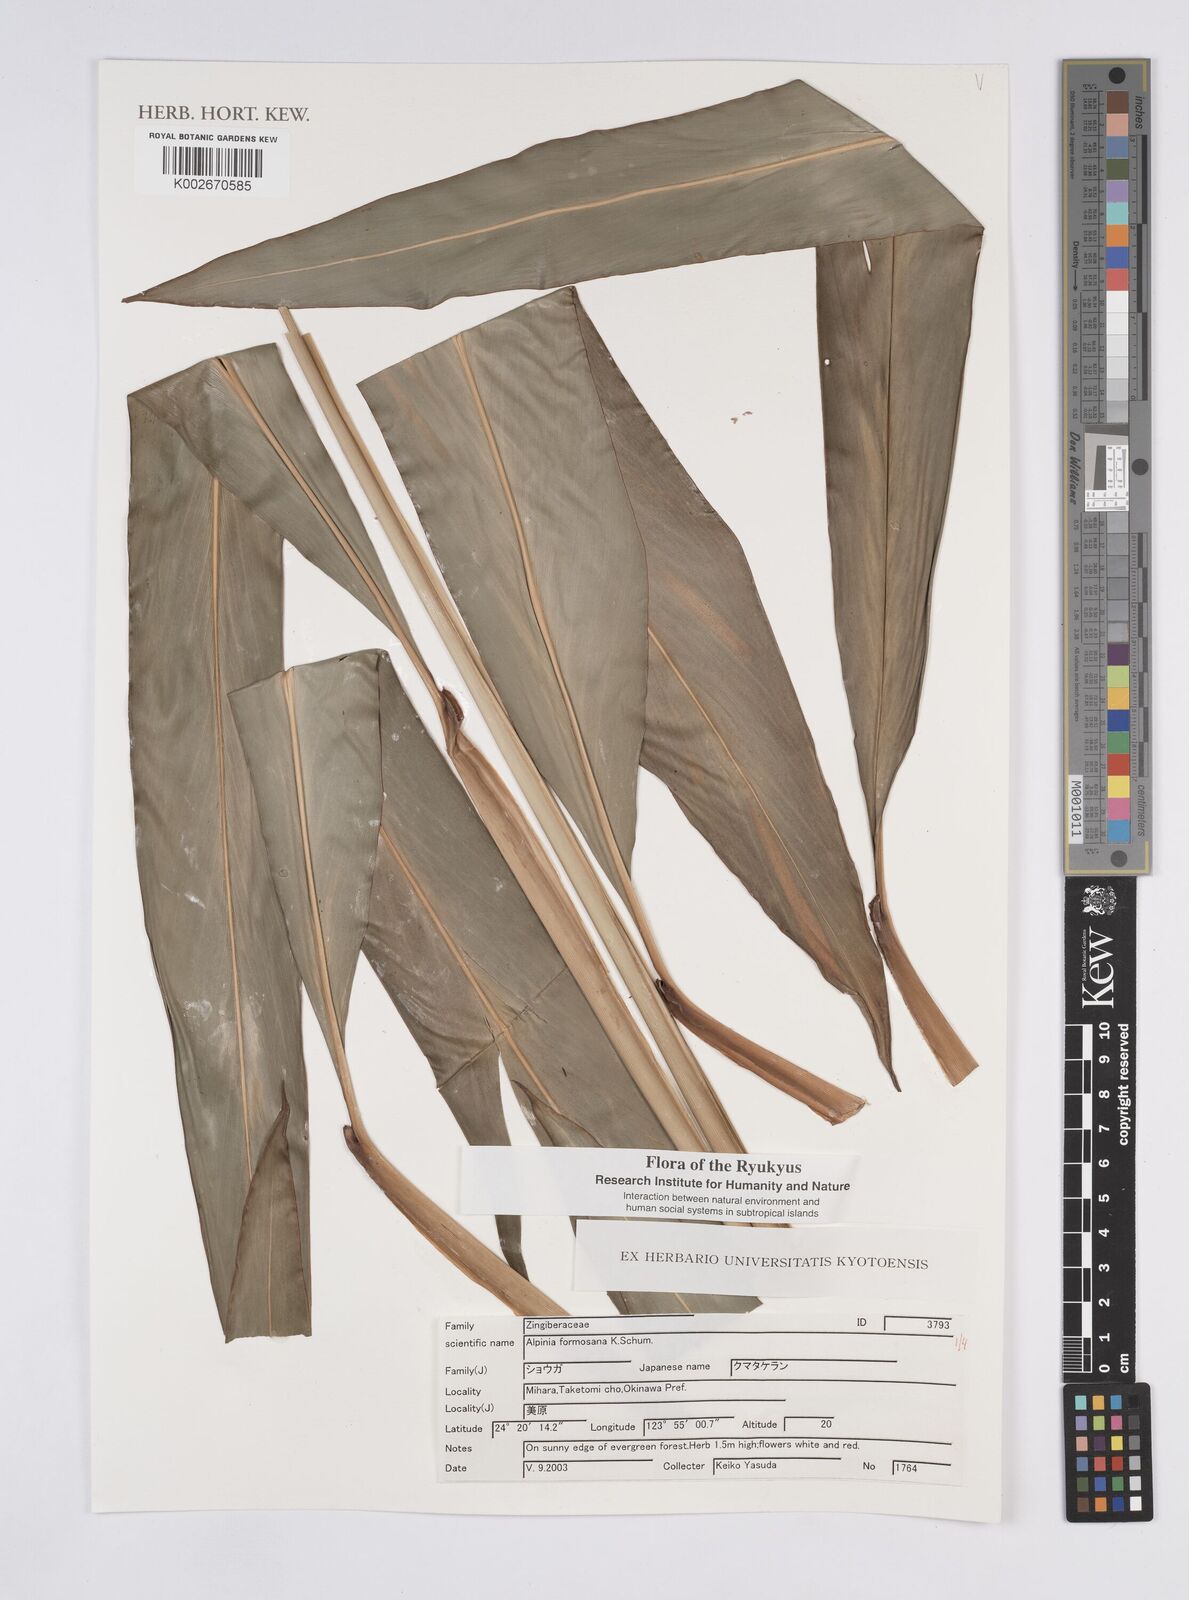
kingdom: Plantae
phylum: Tracheophyta
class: Liliopsida
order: Zingiberales
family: Zingiberaceae
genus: Alpinia
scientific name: Alpinia formosana
